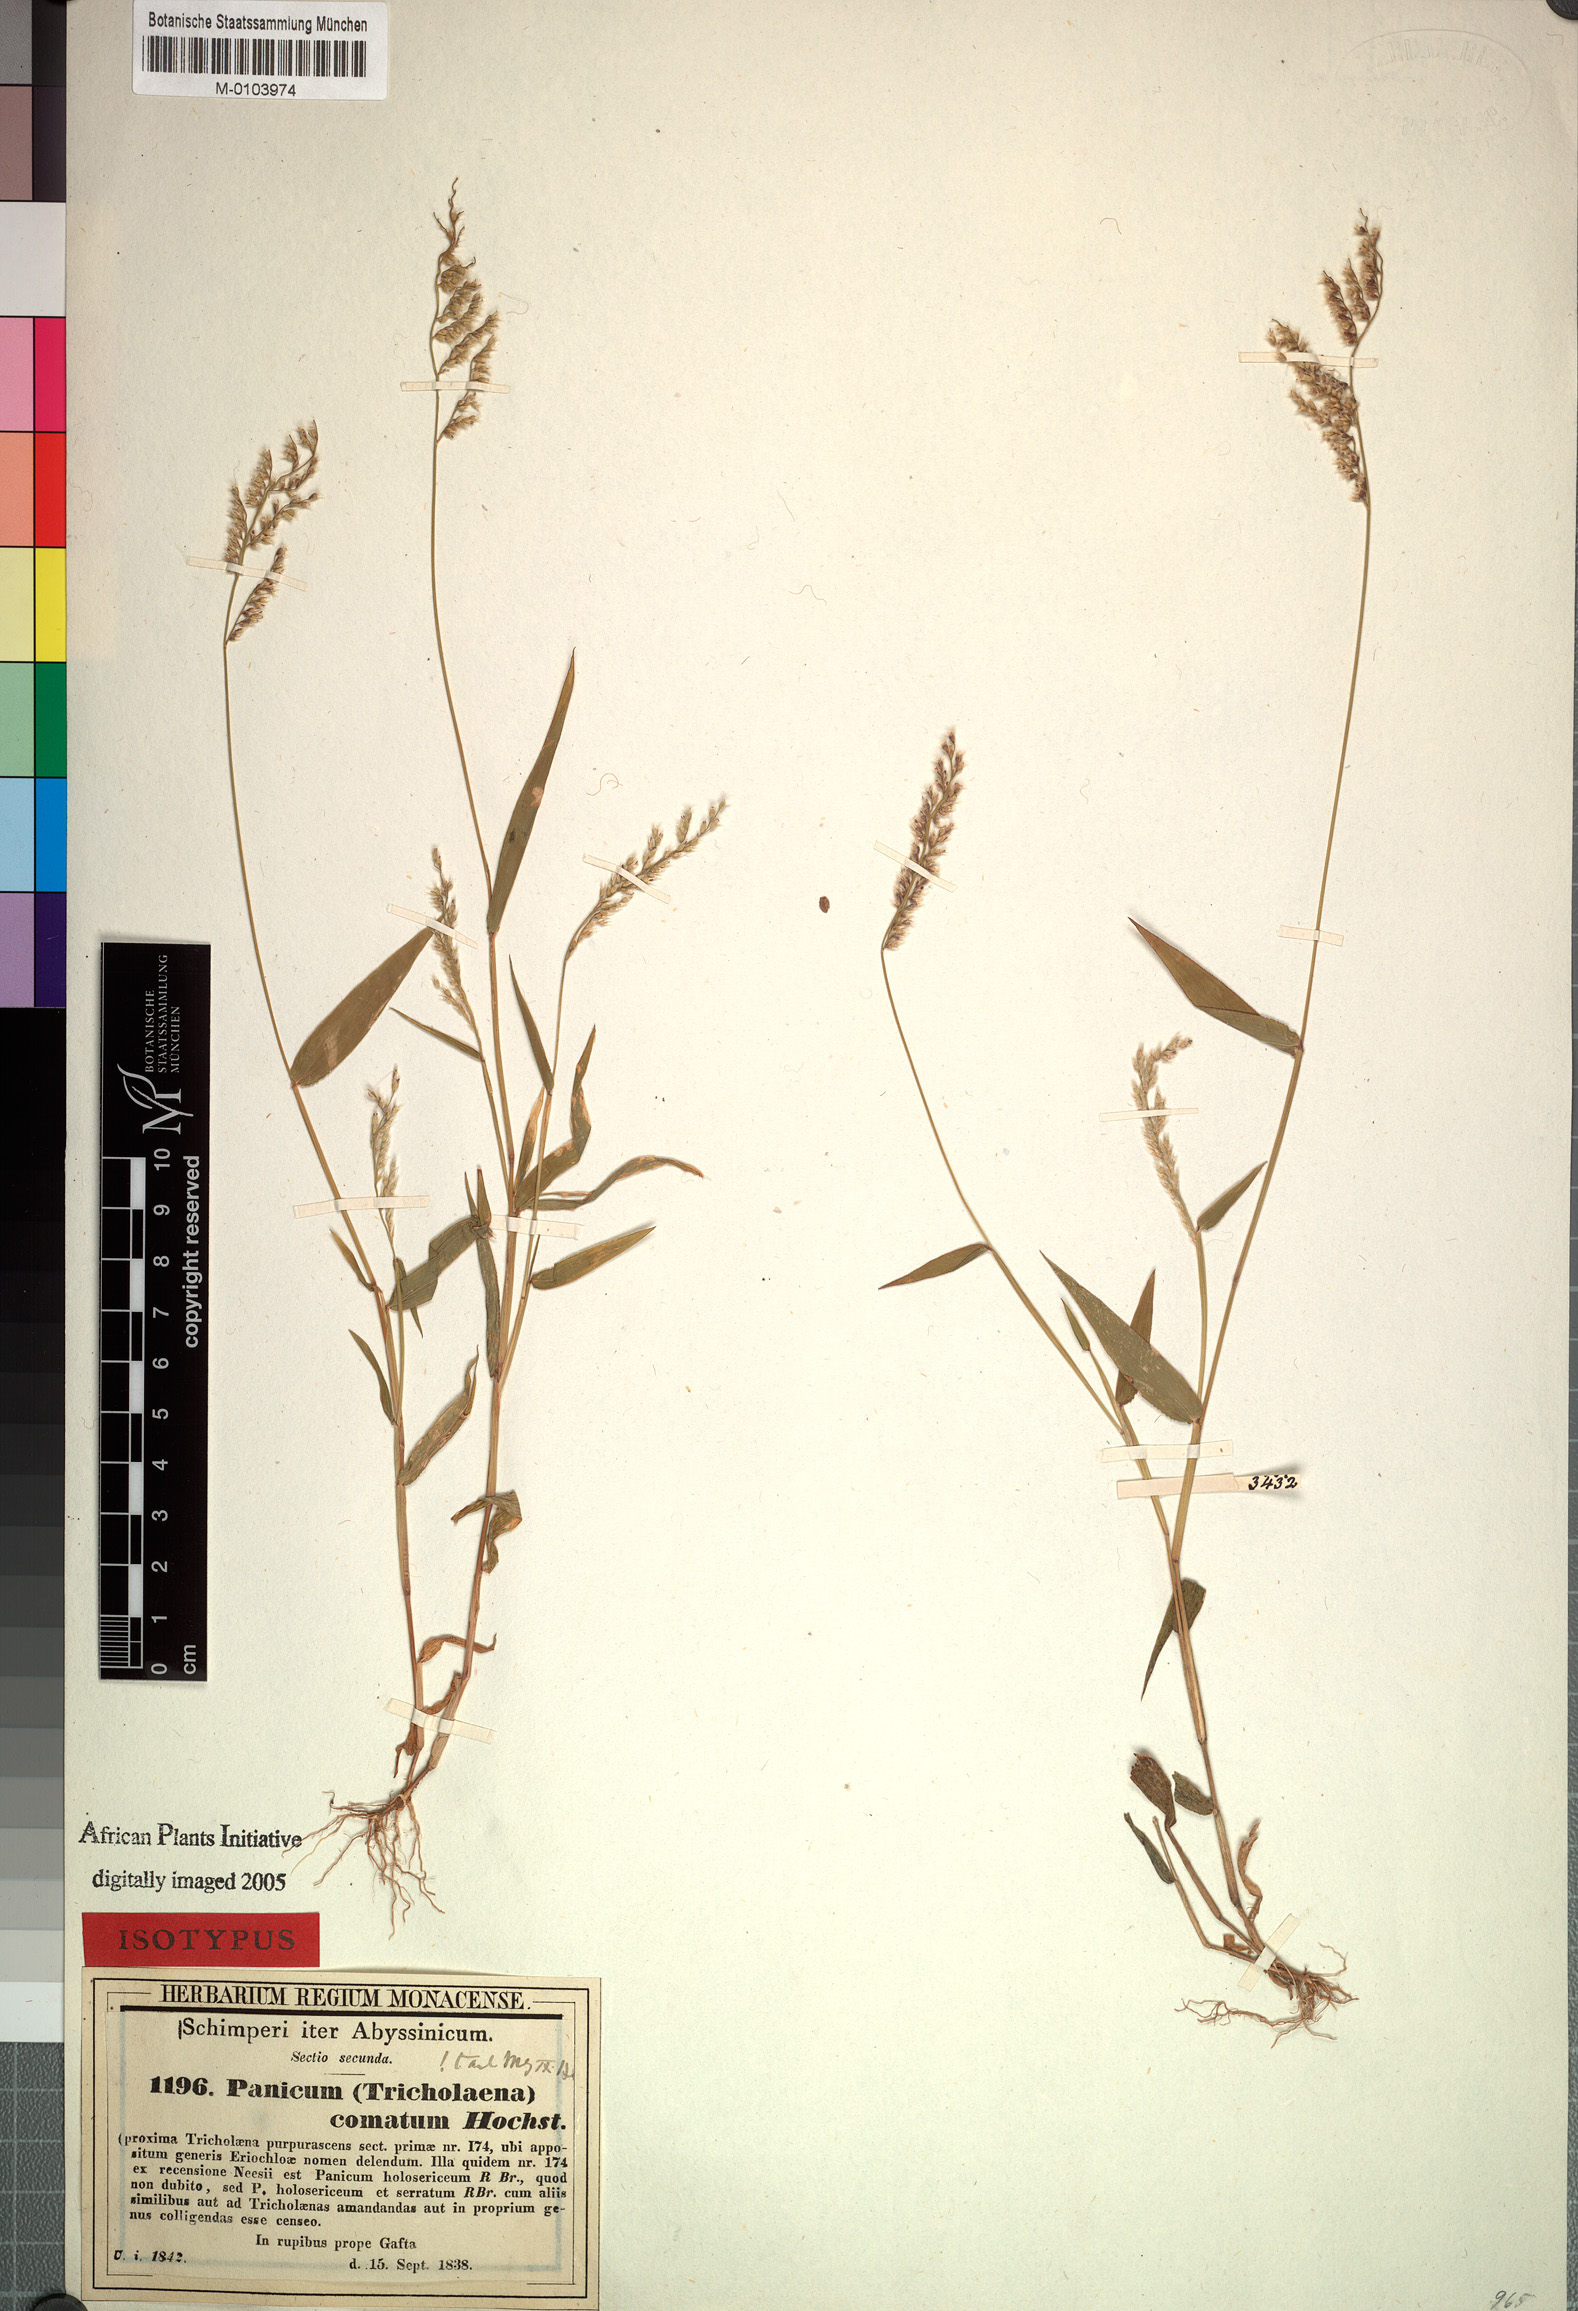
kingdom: Plantae
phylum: Tracheophyta
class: Liliopsida
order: Poales
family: Poaceae
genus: Urochloa
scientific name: Urochloa comata
